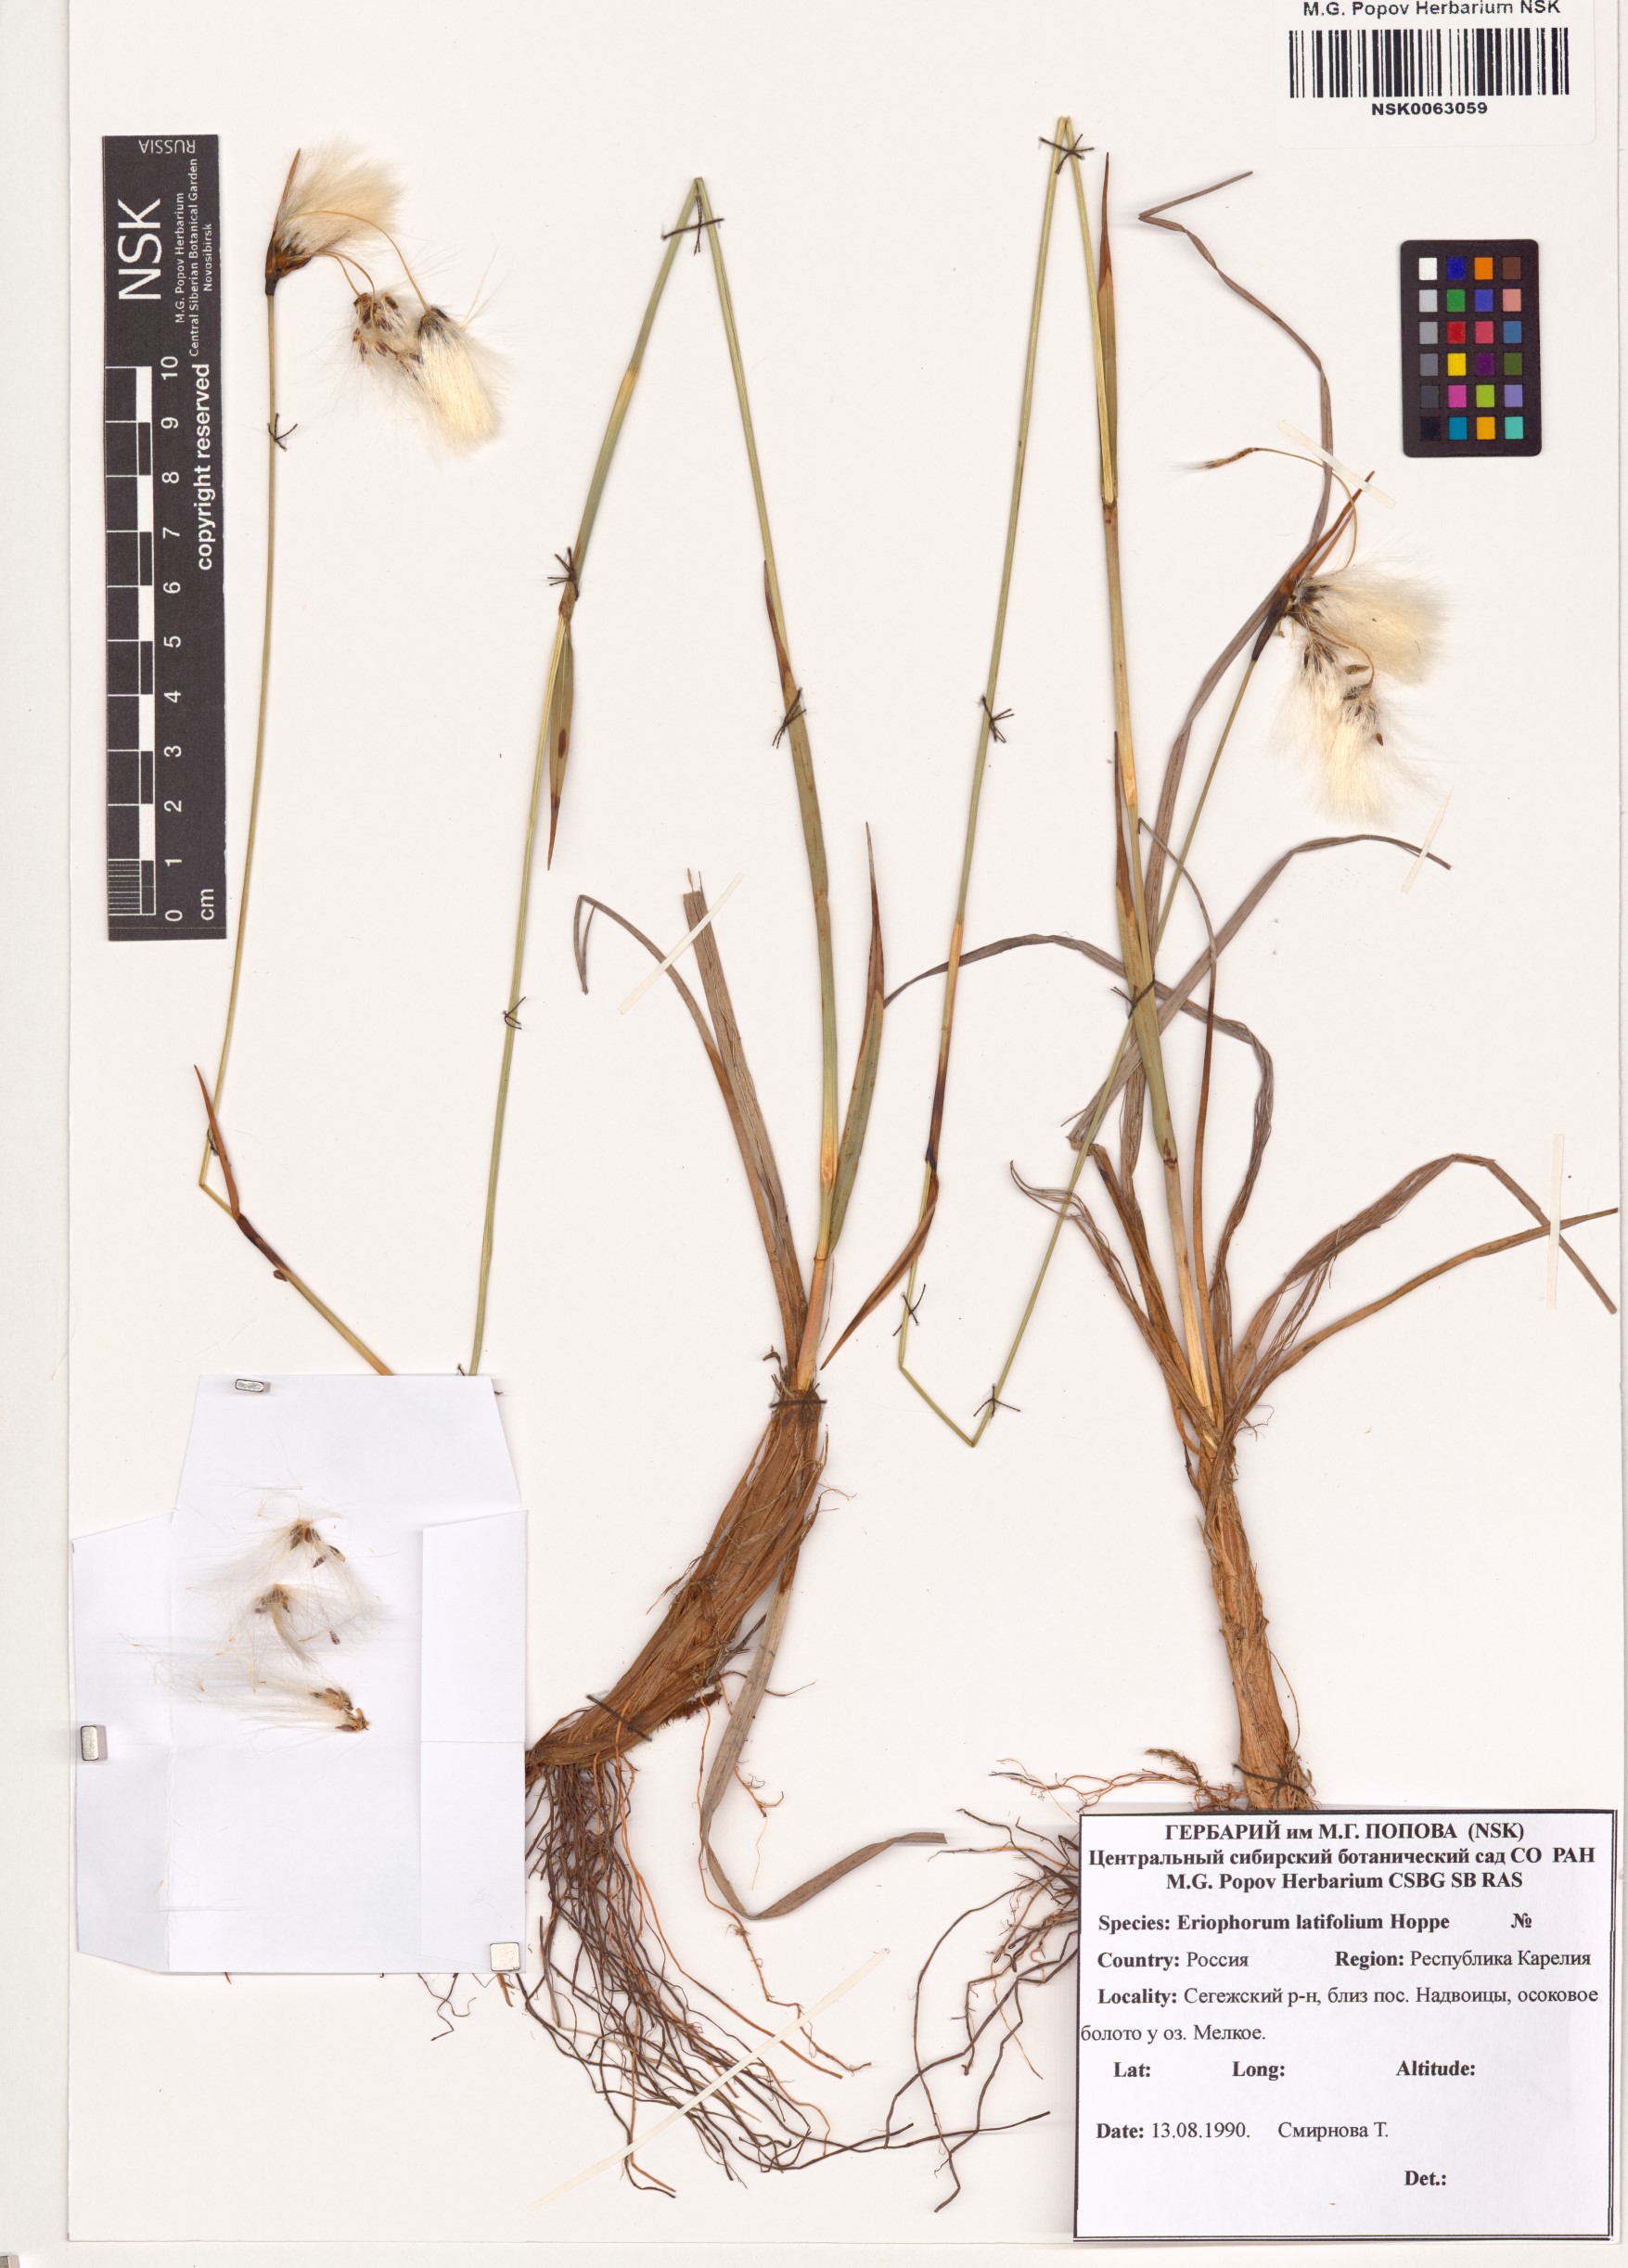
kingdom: Plantae
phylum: Tracheophyta
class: Liliopsida
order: Poales
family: Cyperaceae
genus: Eriophorum
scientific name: Eriophorum latifolium
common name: Broad-leaved cottongrass
